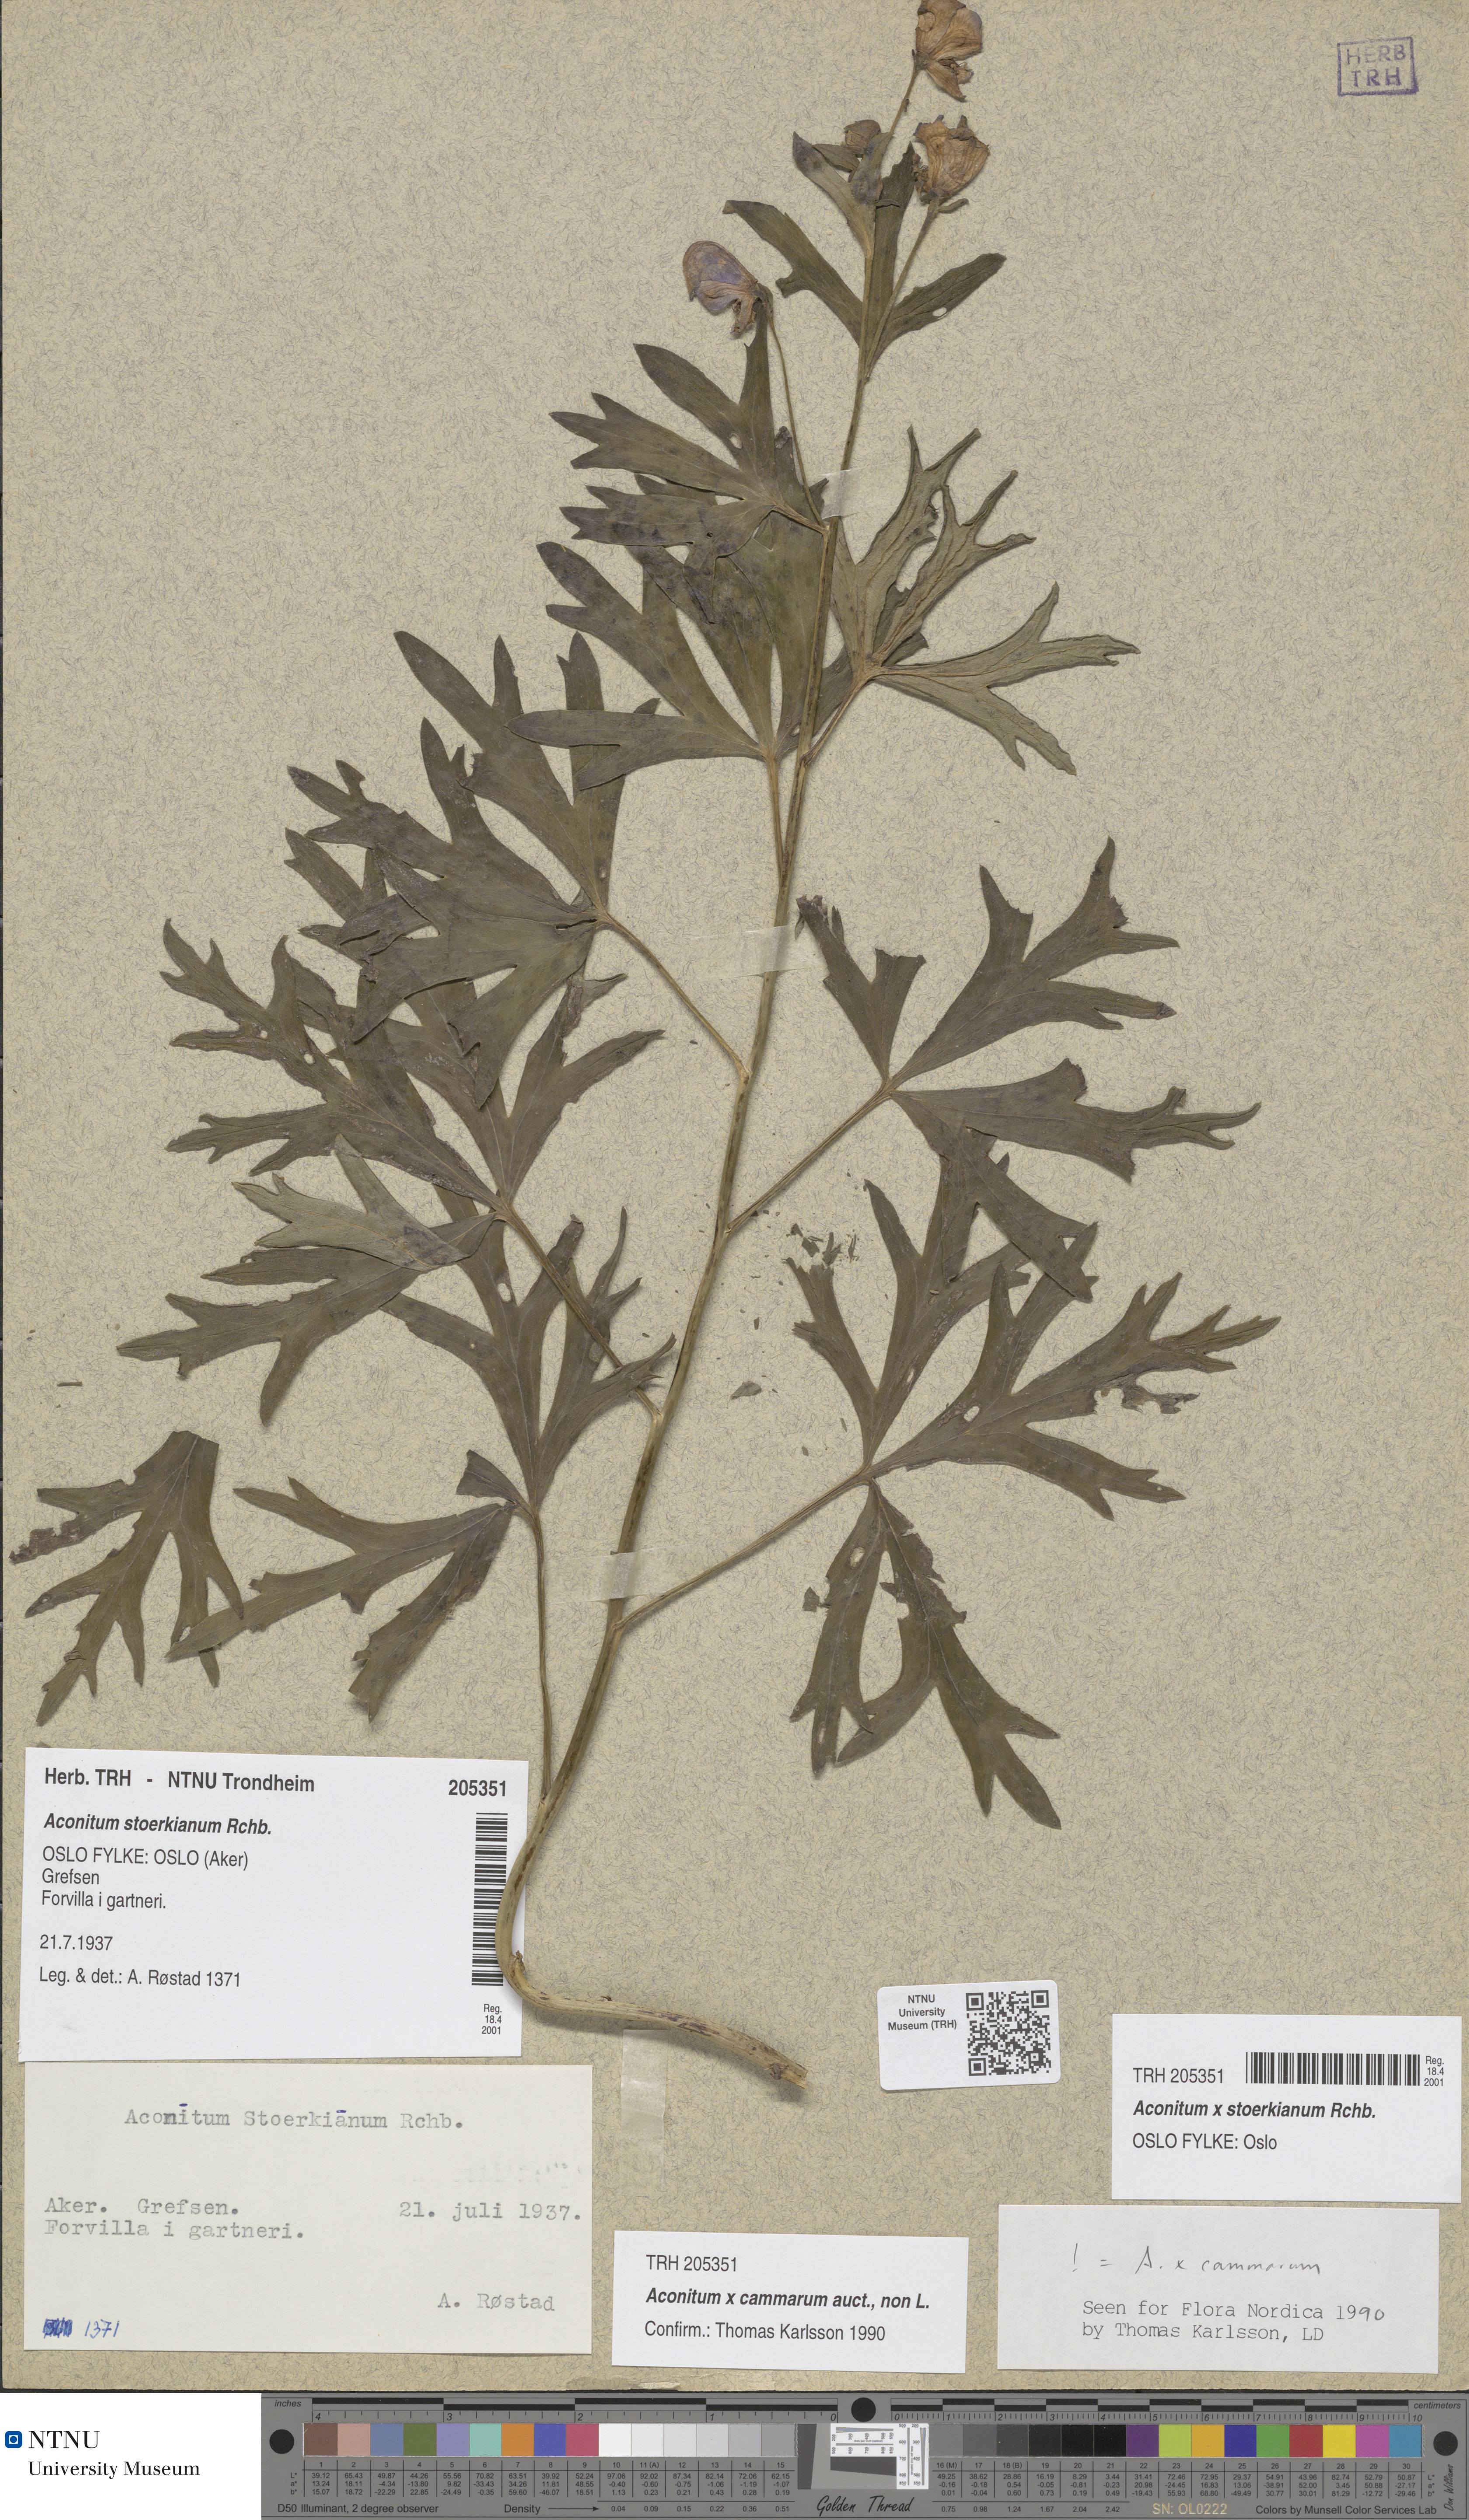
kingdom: Plantae
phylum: Tracheophyta
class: Magnoliopsida
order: Ranunculales
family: Ranunculaceae
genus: Aconitum
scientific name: Aconitum cammarum
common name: Hybrid monk's-hood
